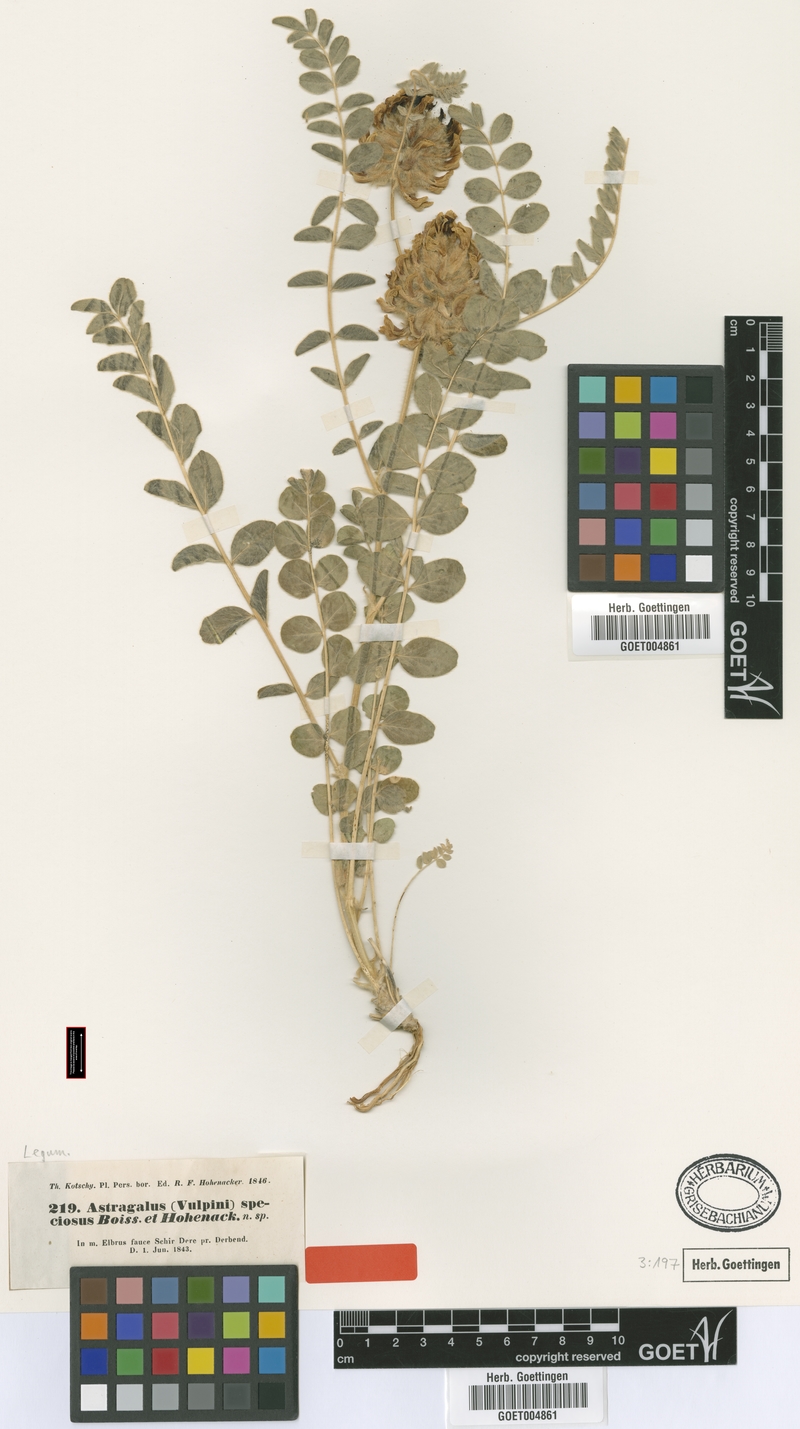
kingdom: Plantae
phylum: Tracheophyta
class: Magnoliopsida
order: Fabales
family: Fabaceae
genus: Astragalus
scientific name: Astragalus speciosus
